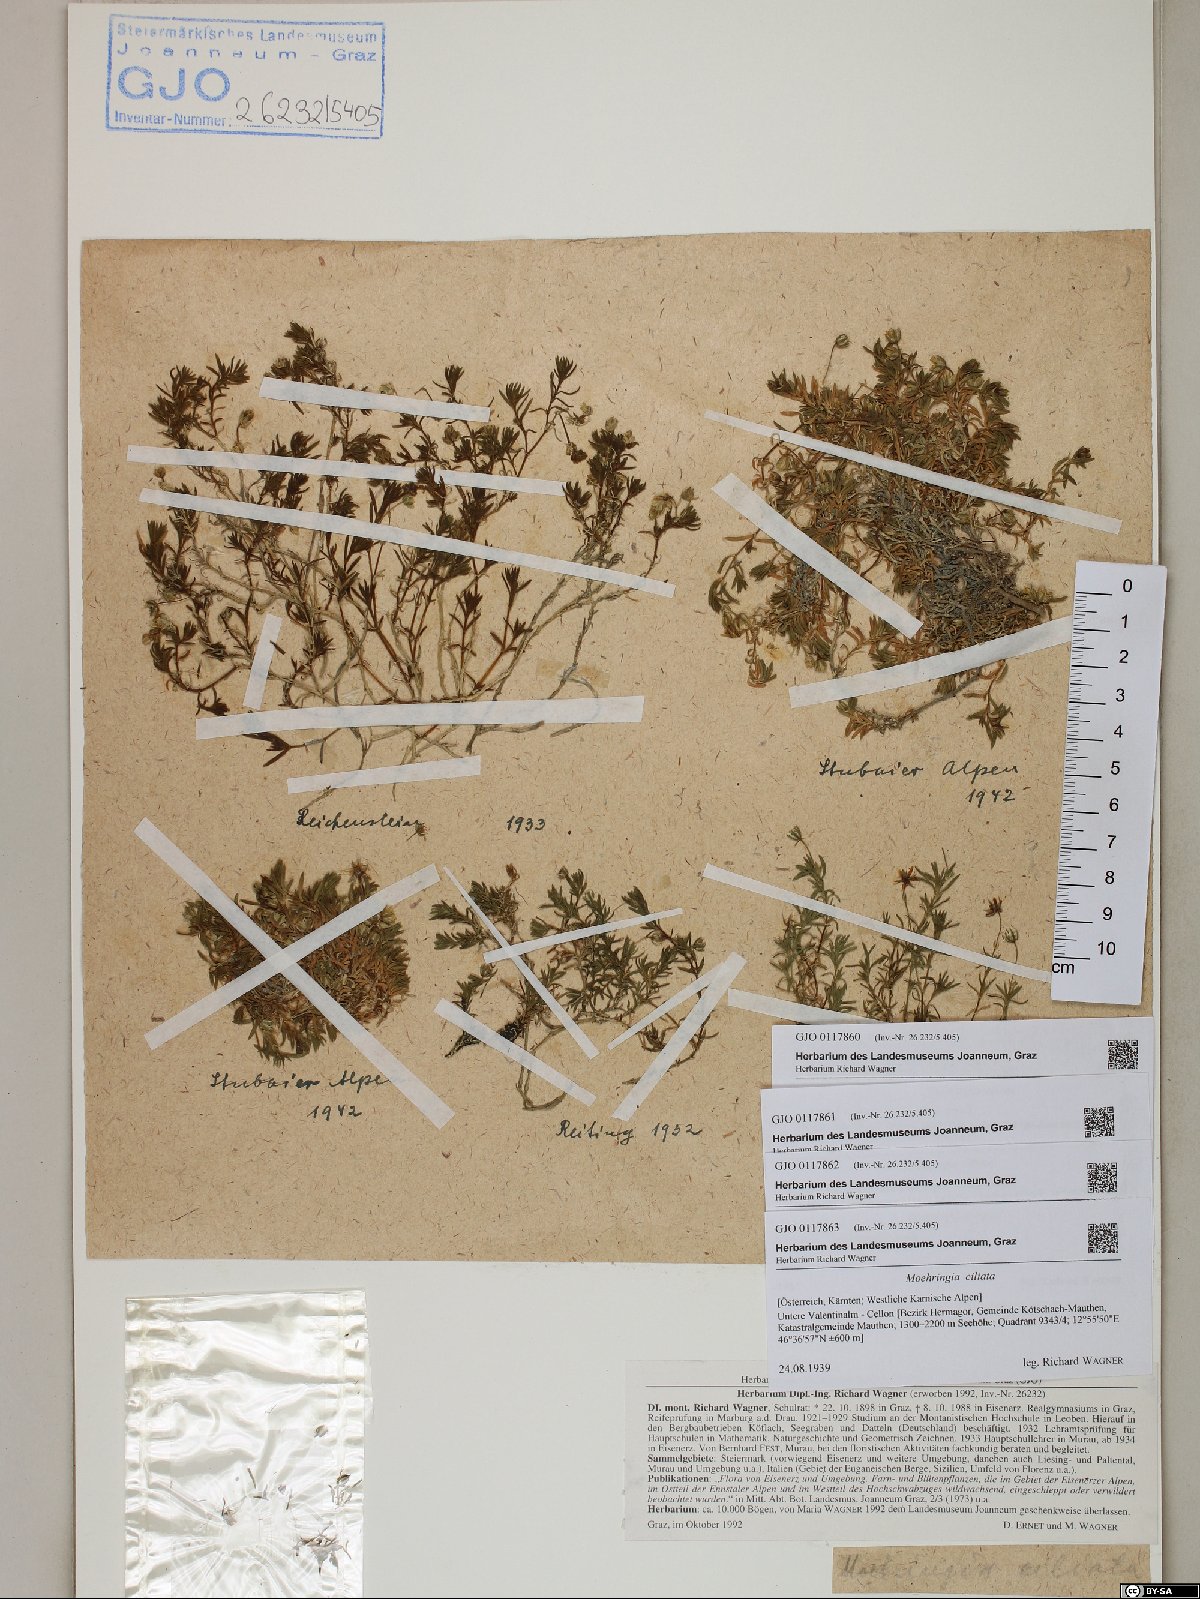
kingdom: Plantae
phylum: Tracheophyta
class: Magnoliopsida
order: Caryophyllales
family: Caryophyllaceae
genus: Moehringia
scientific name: Moehringia ciliata
